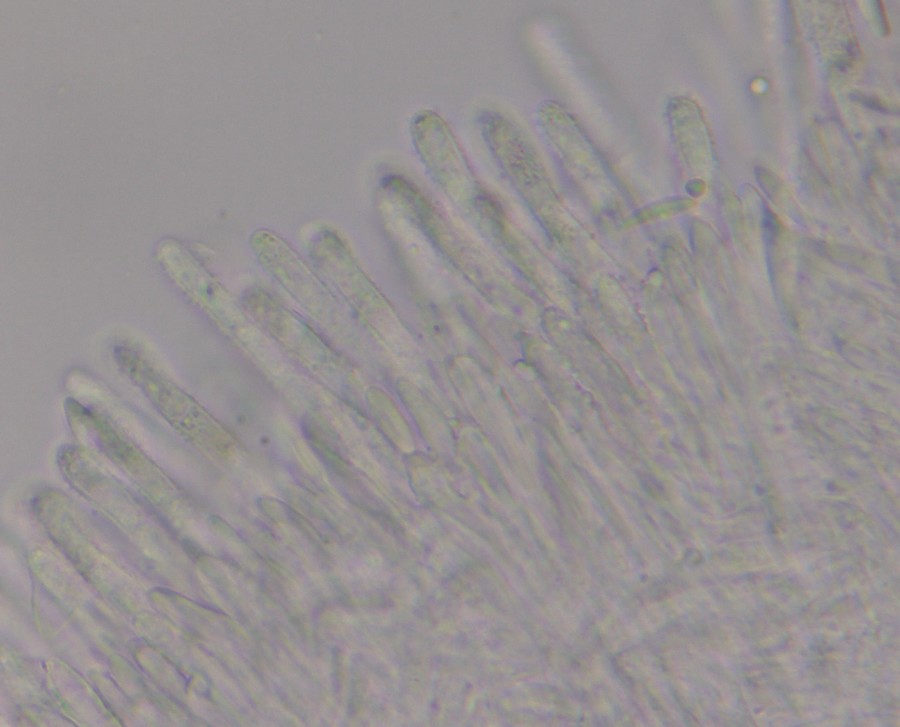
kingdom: Fungi
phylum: Ascomycota
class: Leotiomycetes
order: Helotiales
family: Lachnaceae
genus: Lachnum
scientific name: Lachnum brevipilosum
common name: korthåret frynseskive
